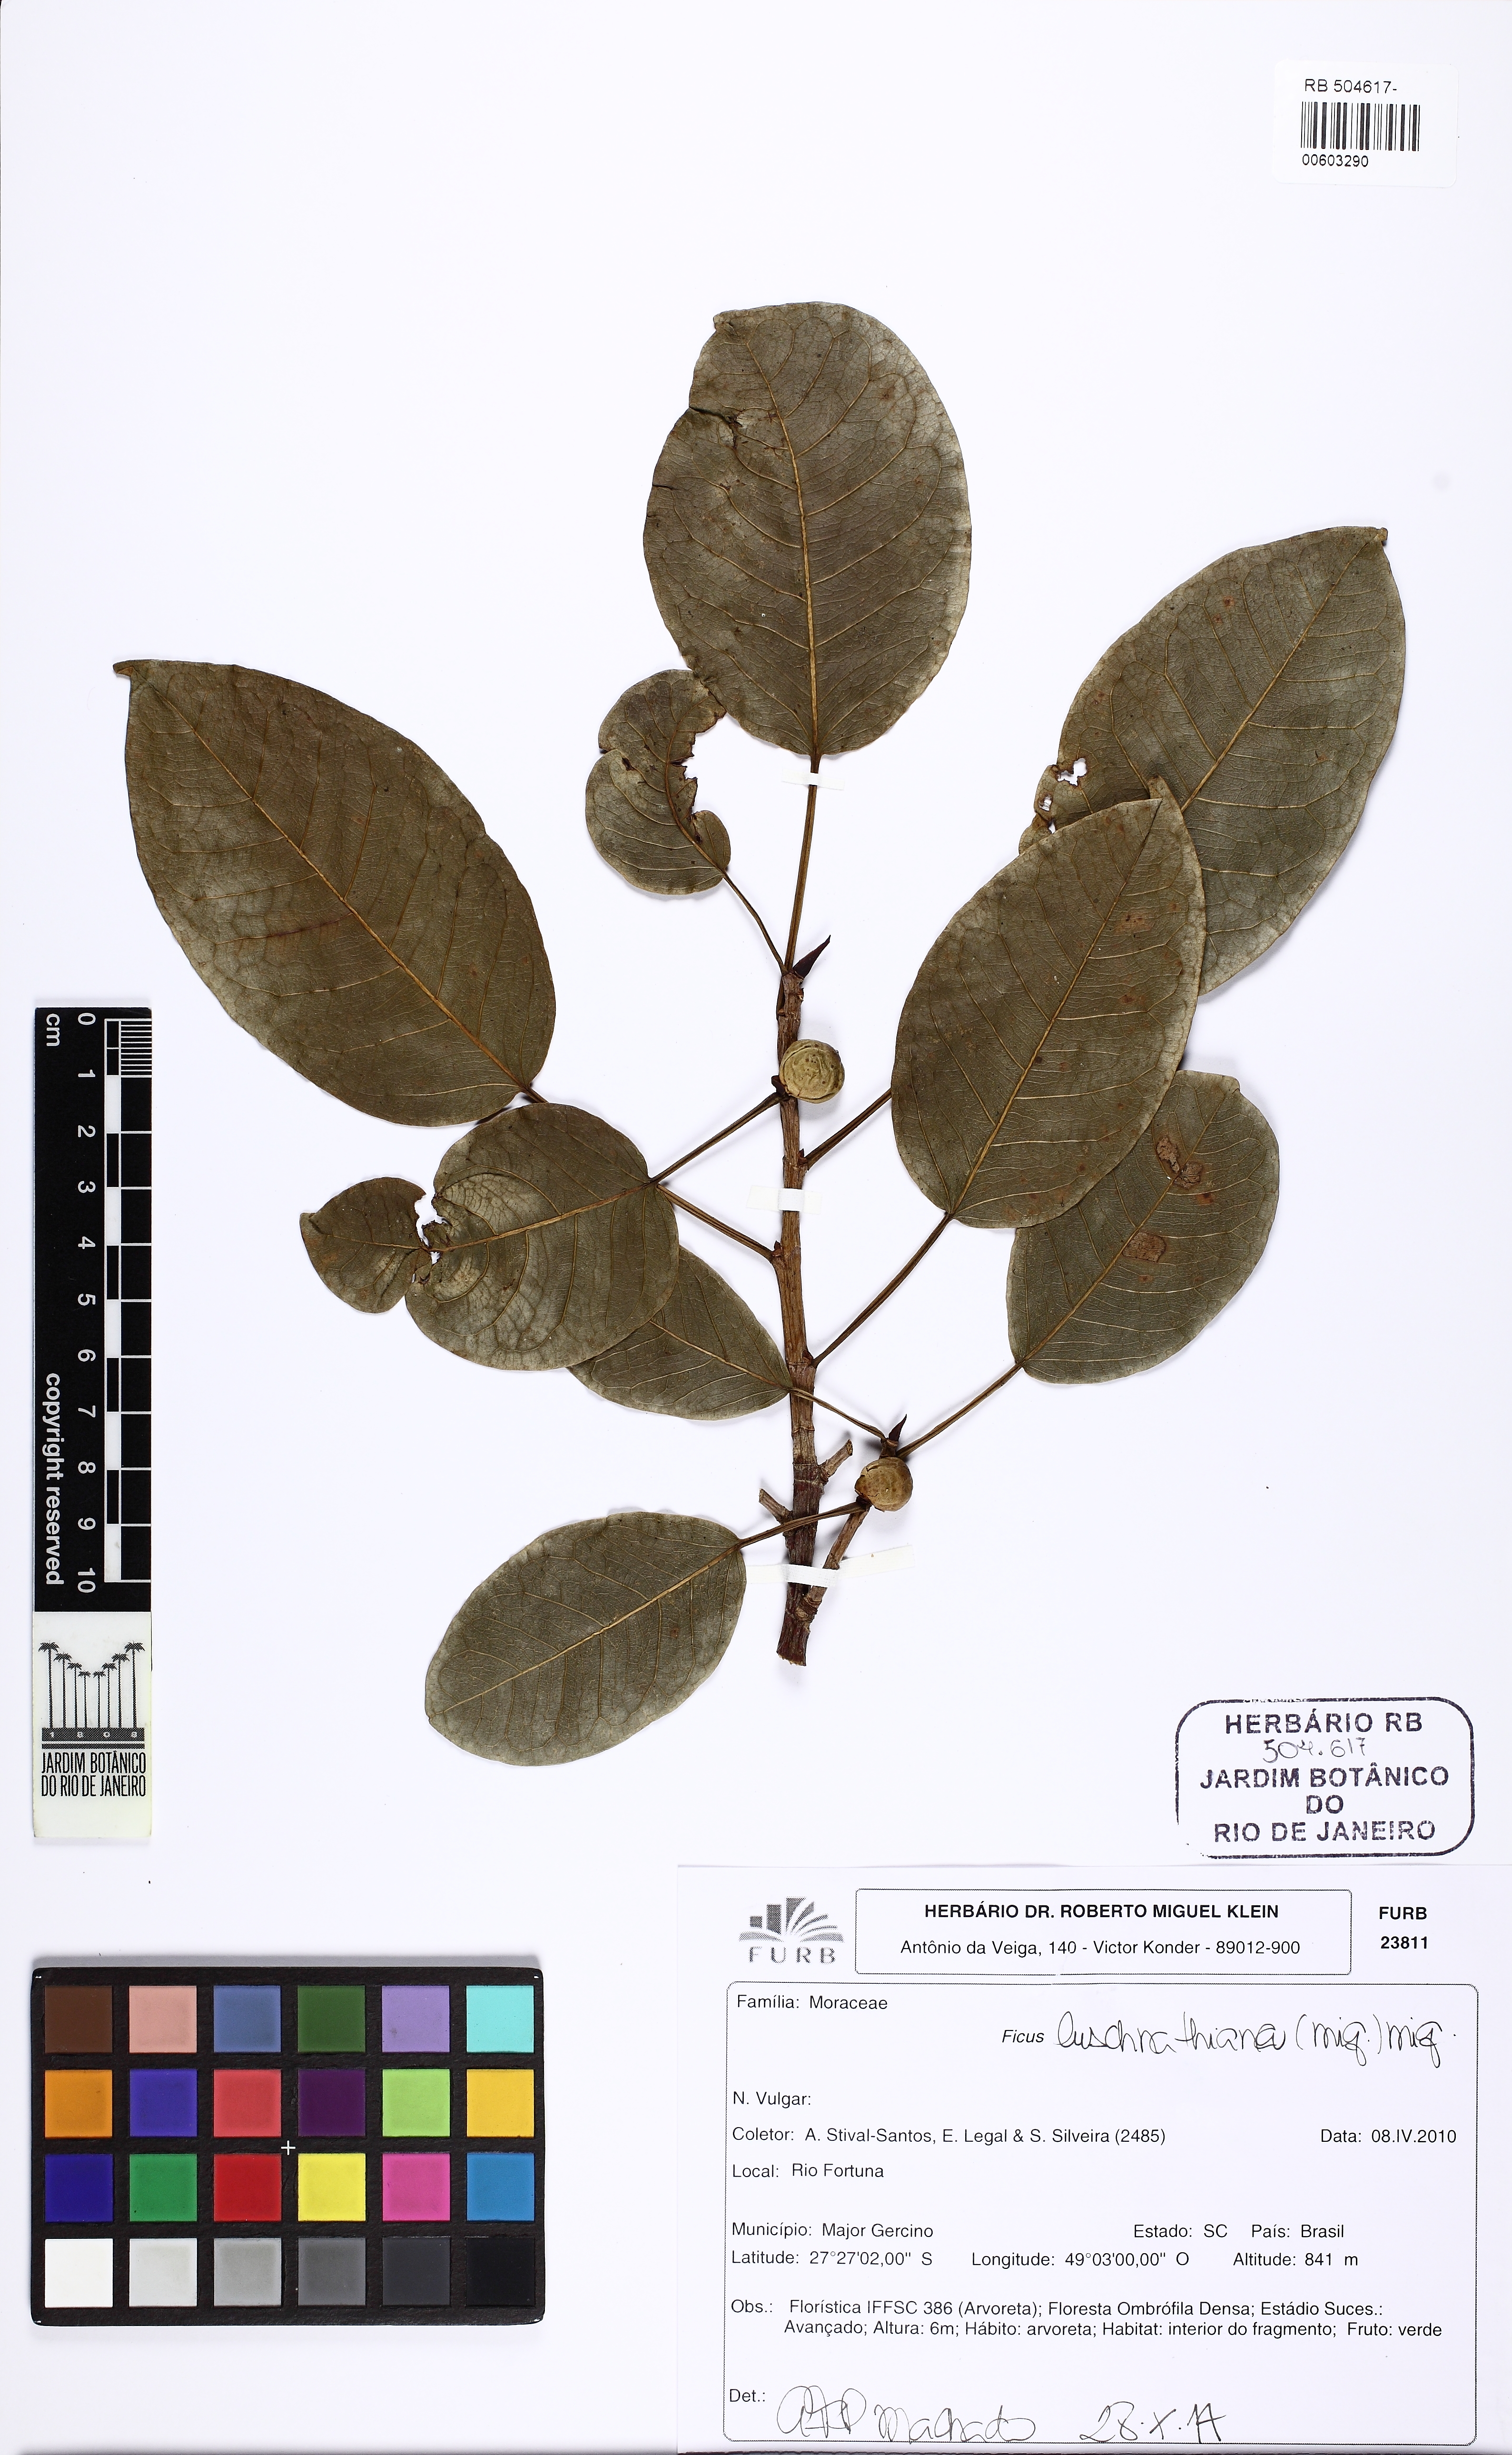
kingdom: Plantae
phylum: Tracheophyta
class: Magnoliopsida
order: Rosales
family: Moraceae
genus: Ficus
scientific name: Ficus luschnathiana
